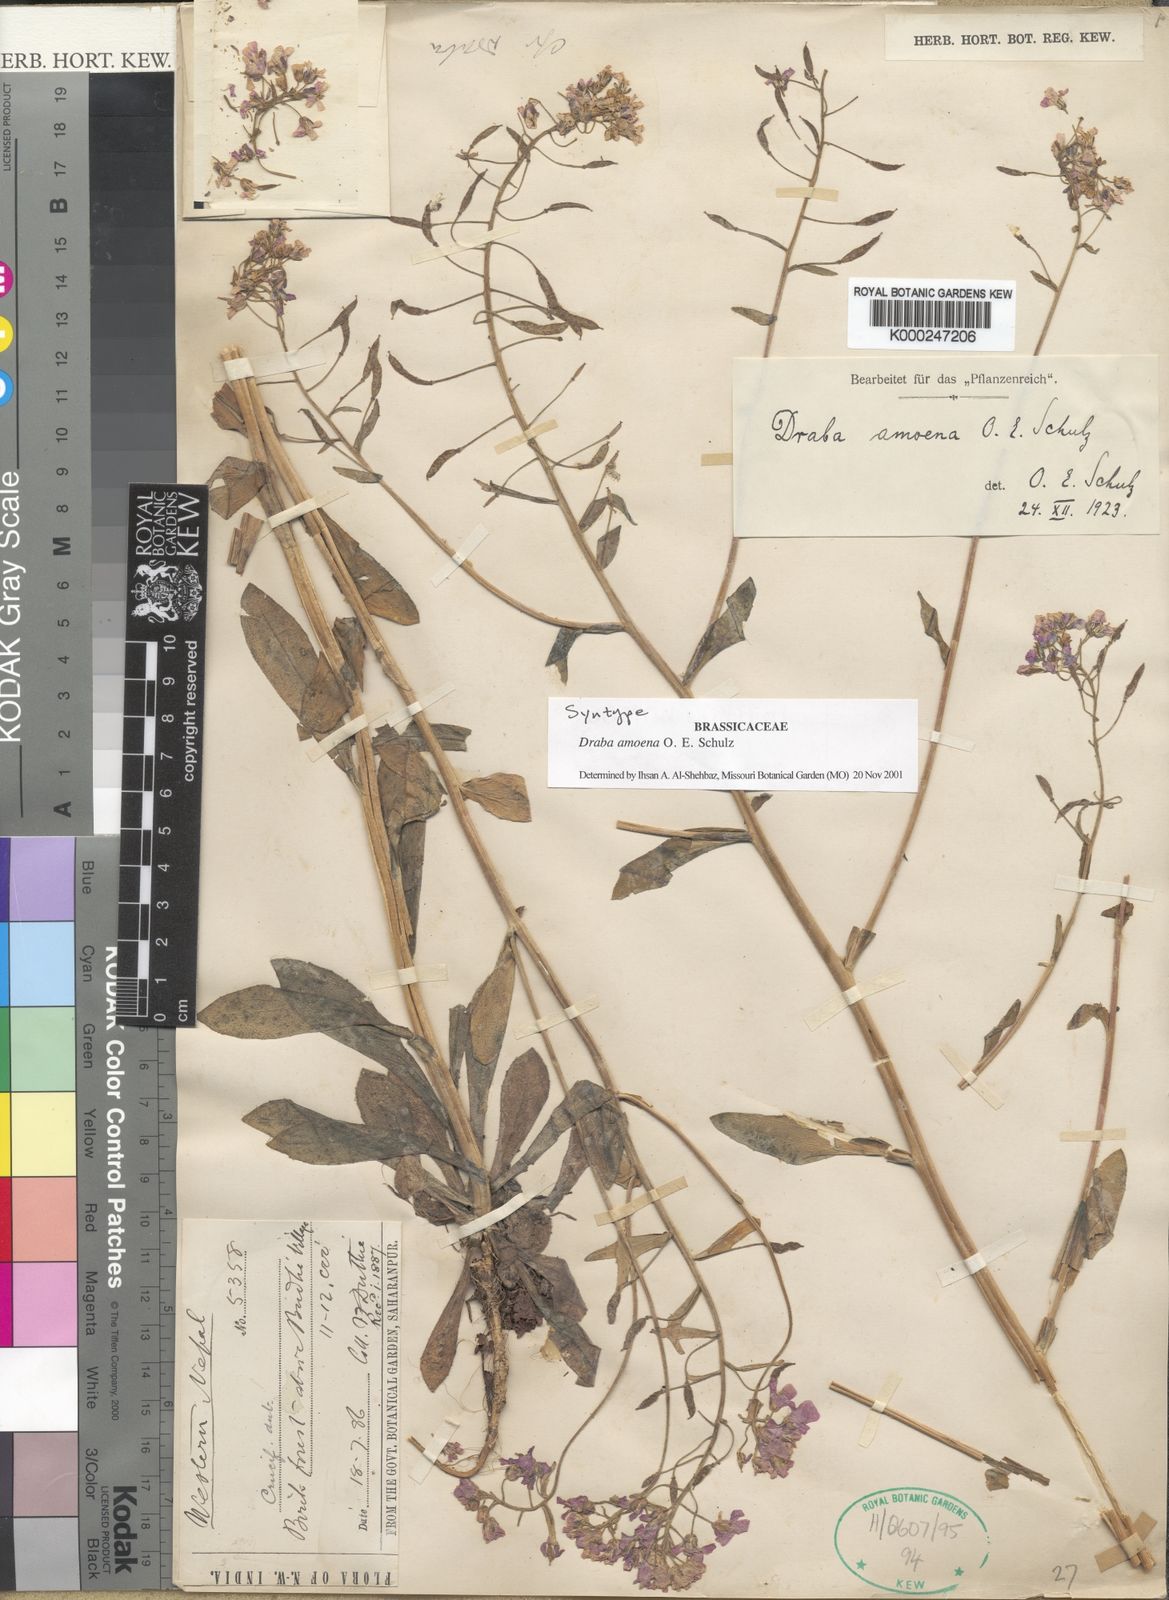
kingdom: Plantae
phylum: Tracheophyta
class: Magnoliopsida
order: Brassicales
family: Brassicaceae
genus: Draba
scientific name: Draba amoena
